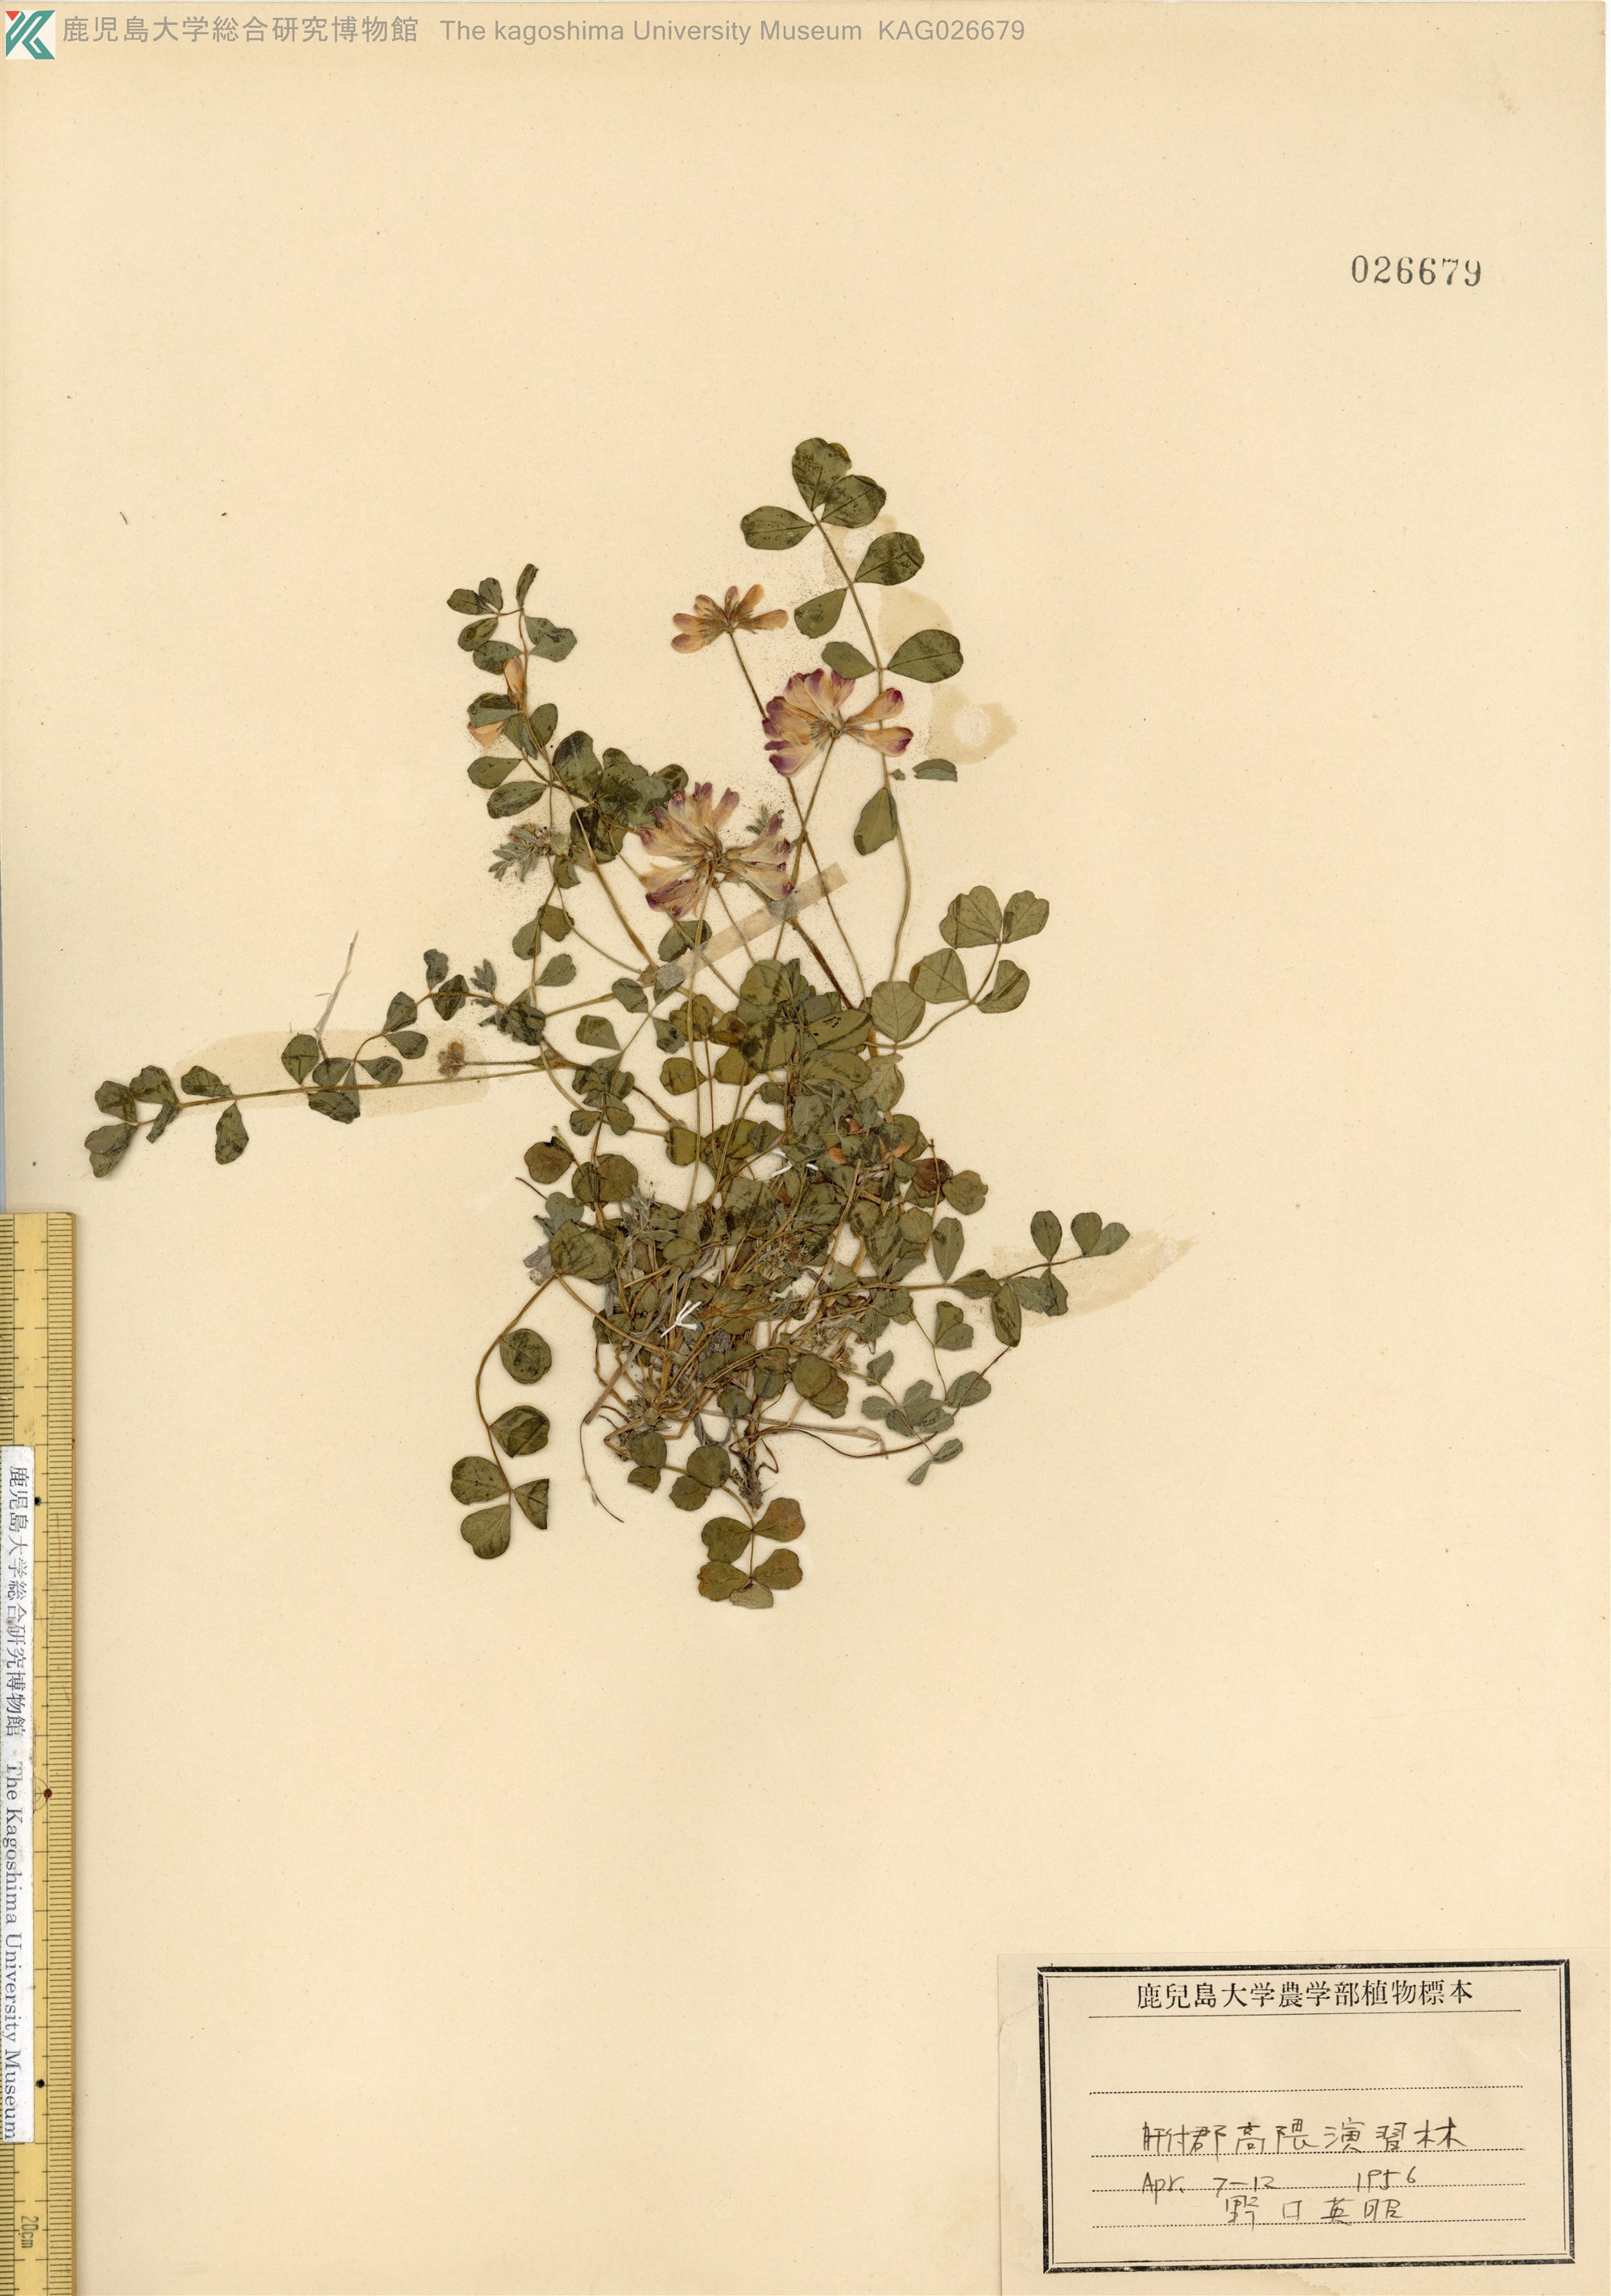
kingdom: Plantae
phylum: Tracheophyta
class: Magnoliopsida
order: Fabales
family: Fabaceae
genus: Astragalus
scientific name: Astragalus sinicus
